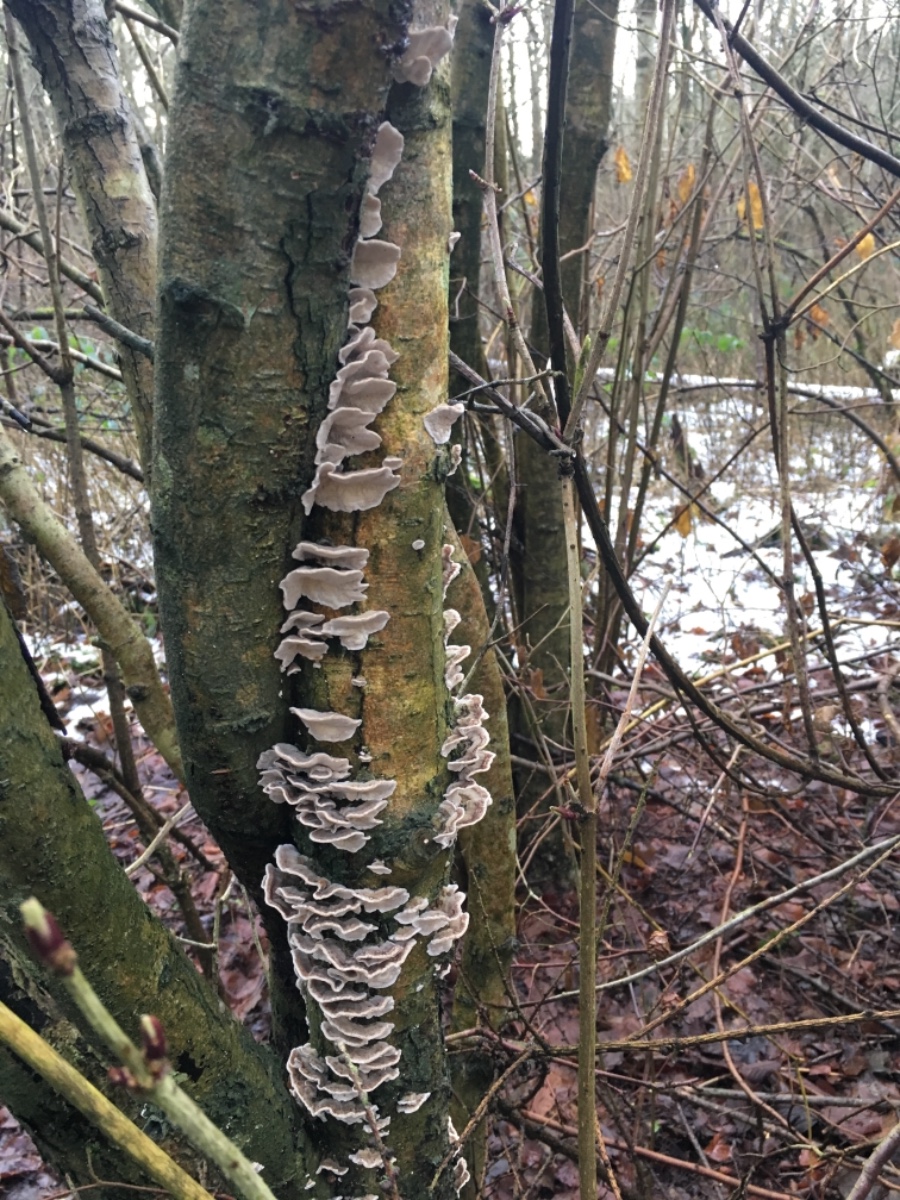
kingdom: Fungi
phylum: Basidiomycota
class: Agaricomycetes
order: Polyporales
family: Polyporaceae
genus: Trametes
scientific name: Trametes versicolor
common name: broget læderporesvamp
